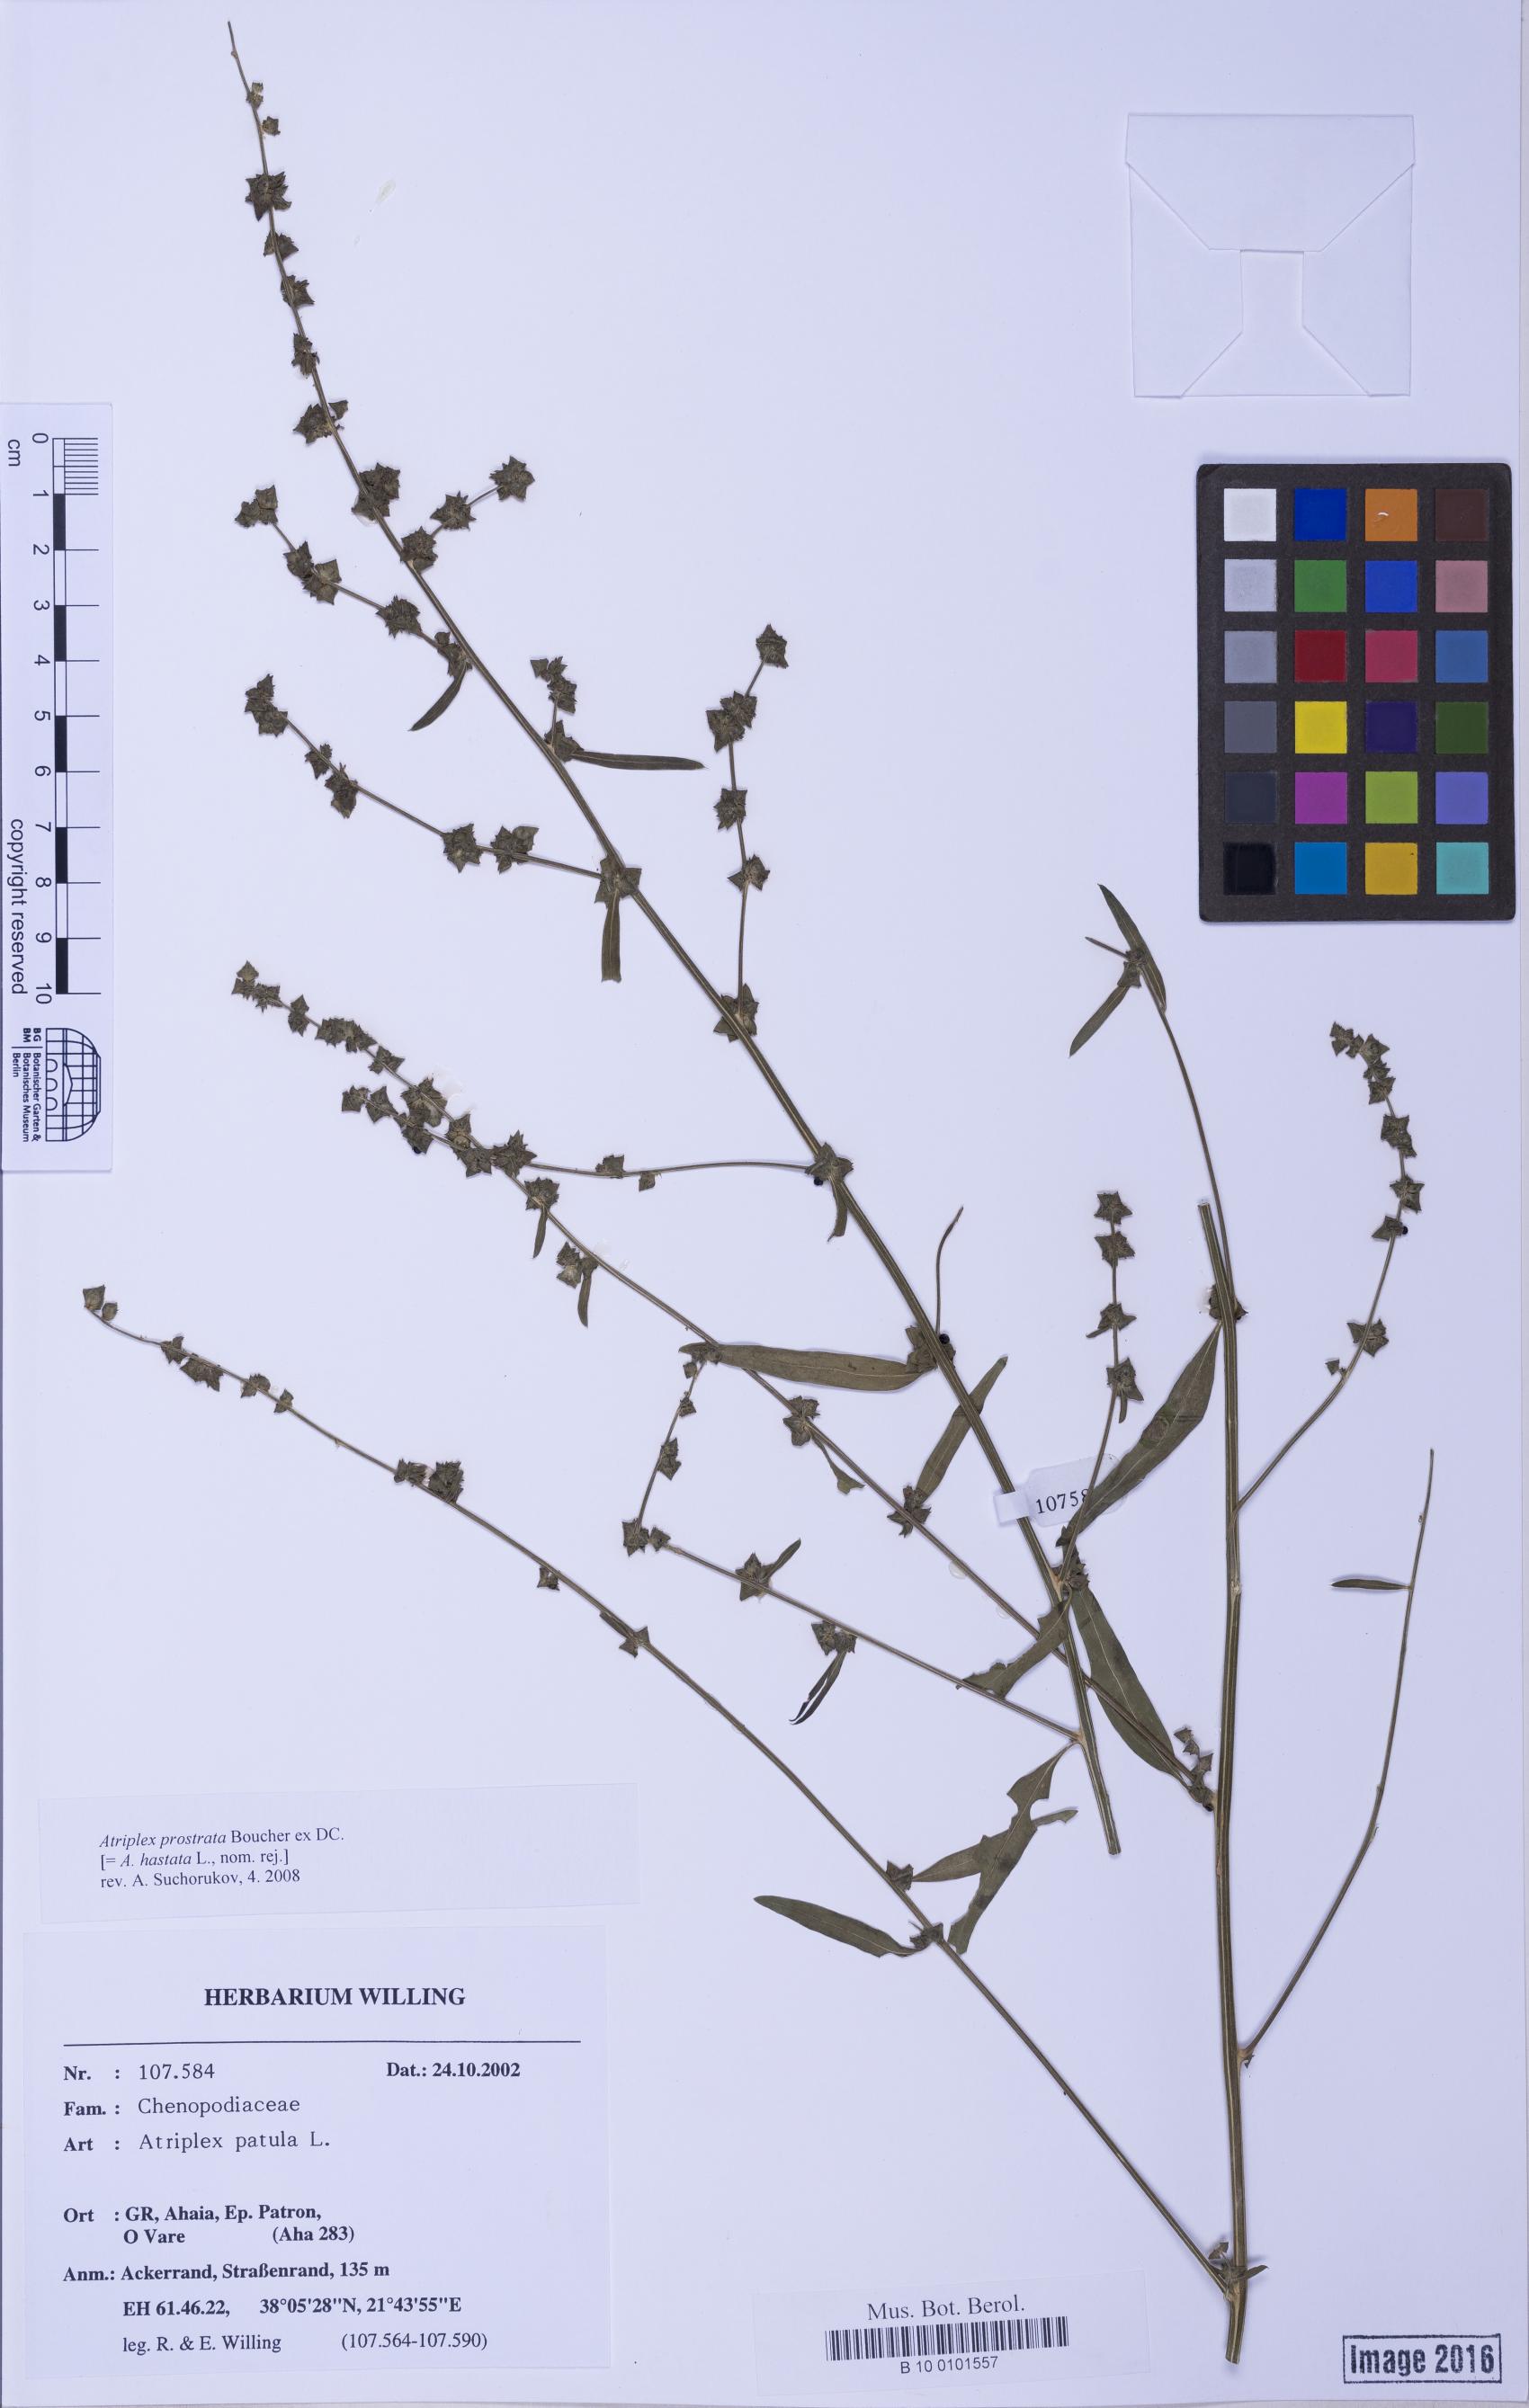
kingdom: Plantae
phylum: Tracheophyta
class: Magnoliopsida
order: Caryophyllales
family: Amaranthaceae
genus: Atriplex
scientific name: Atriplex prostrata
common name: Spear-leaved orache
